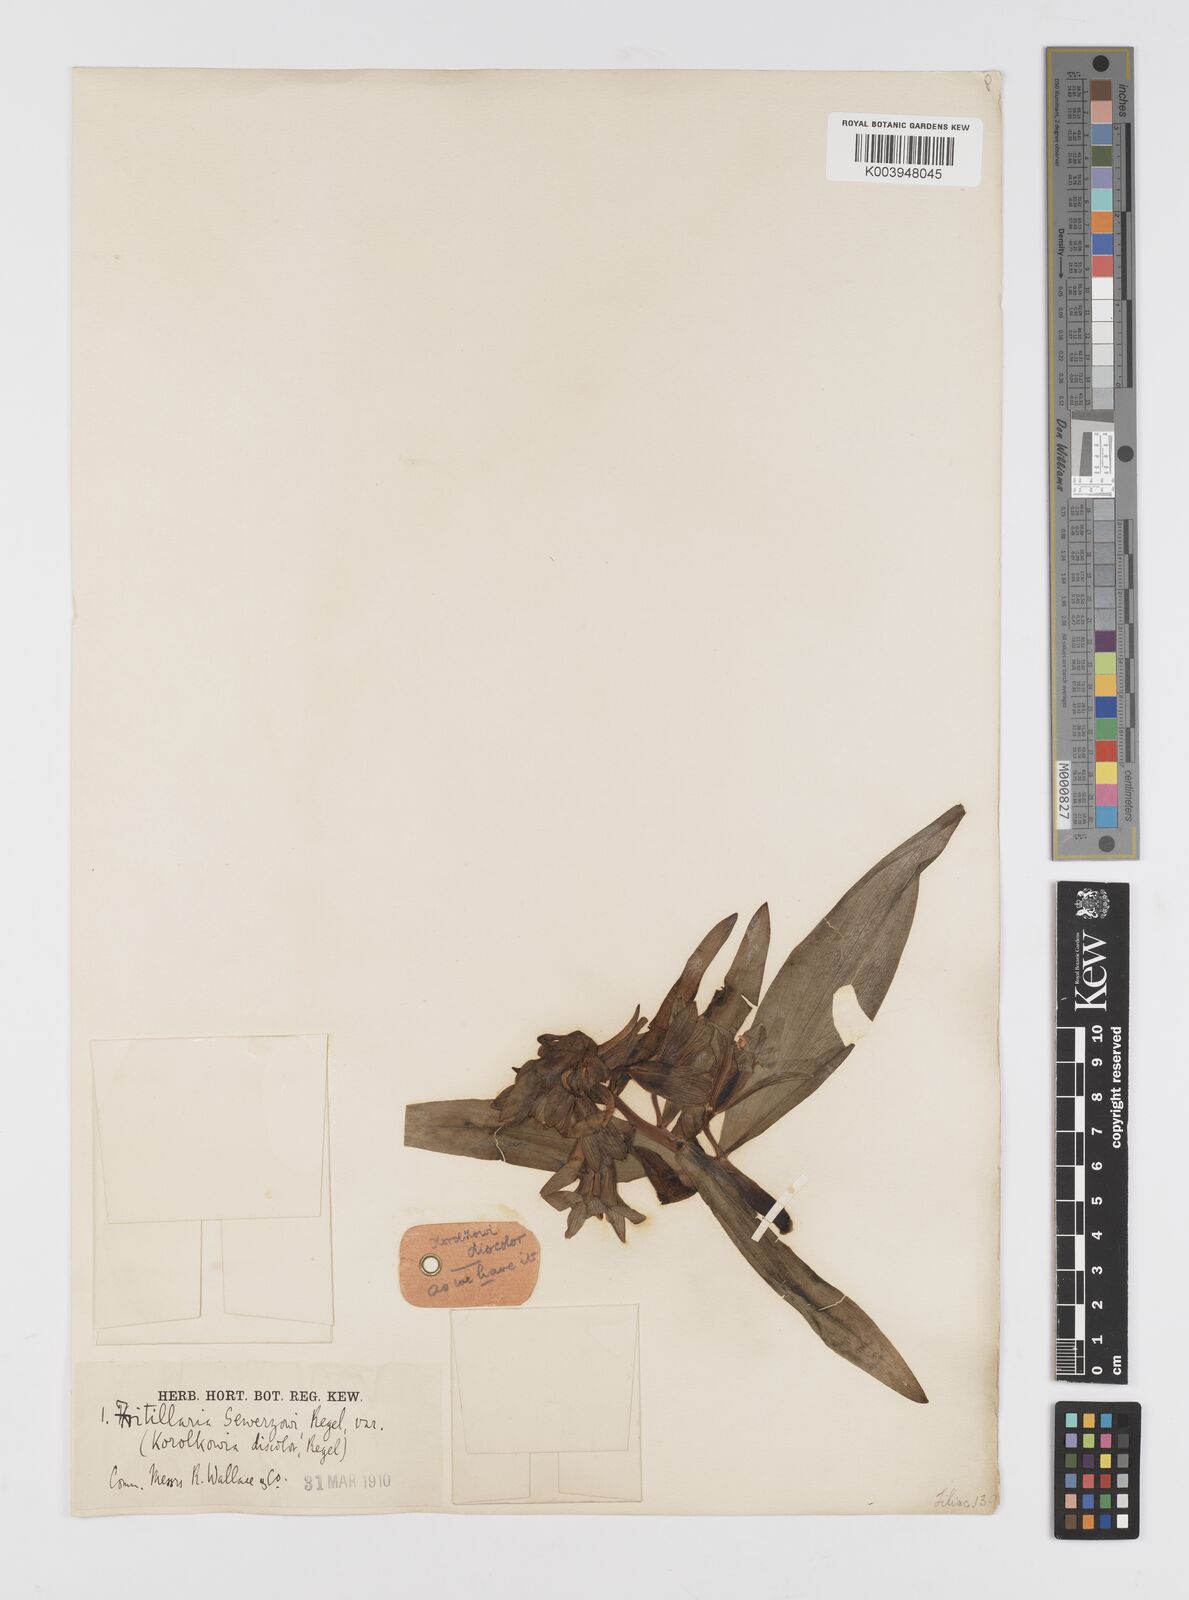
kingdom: Plantae
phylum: Tracheophyta
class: Liliopsida
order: Liliales
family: Liliaceae
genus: Fritillaria
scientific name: Fritillaria sewerzowii
